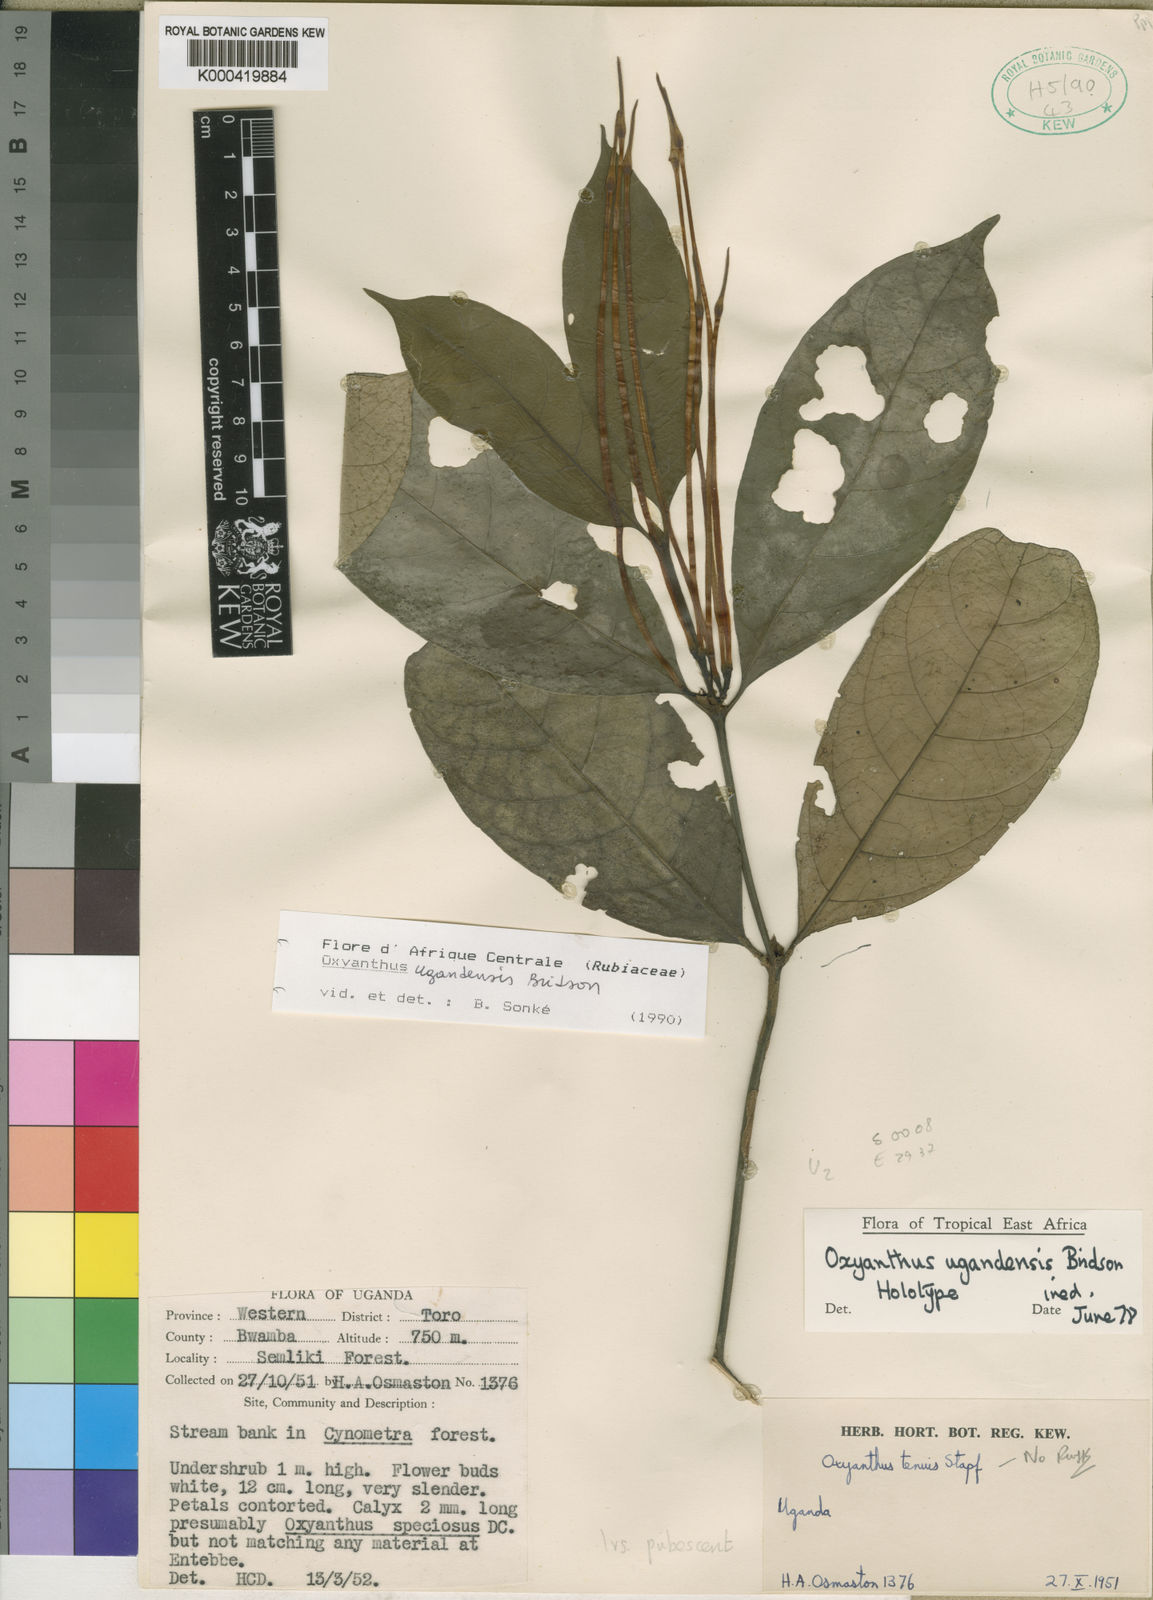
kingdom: Plantae
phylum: Tracheophyta
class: Magnoliopsida
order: Gentianales
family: Rubiaceae
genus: Oxyanthus
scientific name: Oxyanthus ugandensis
